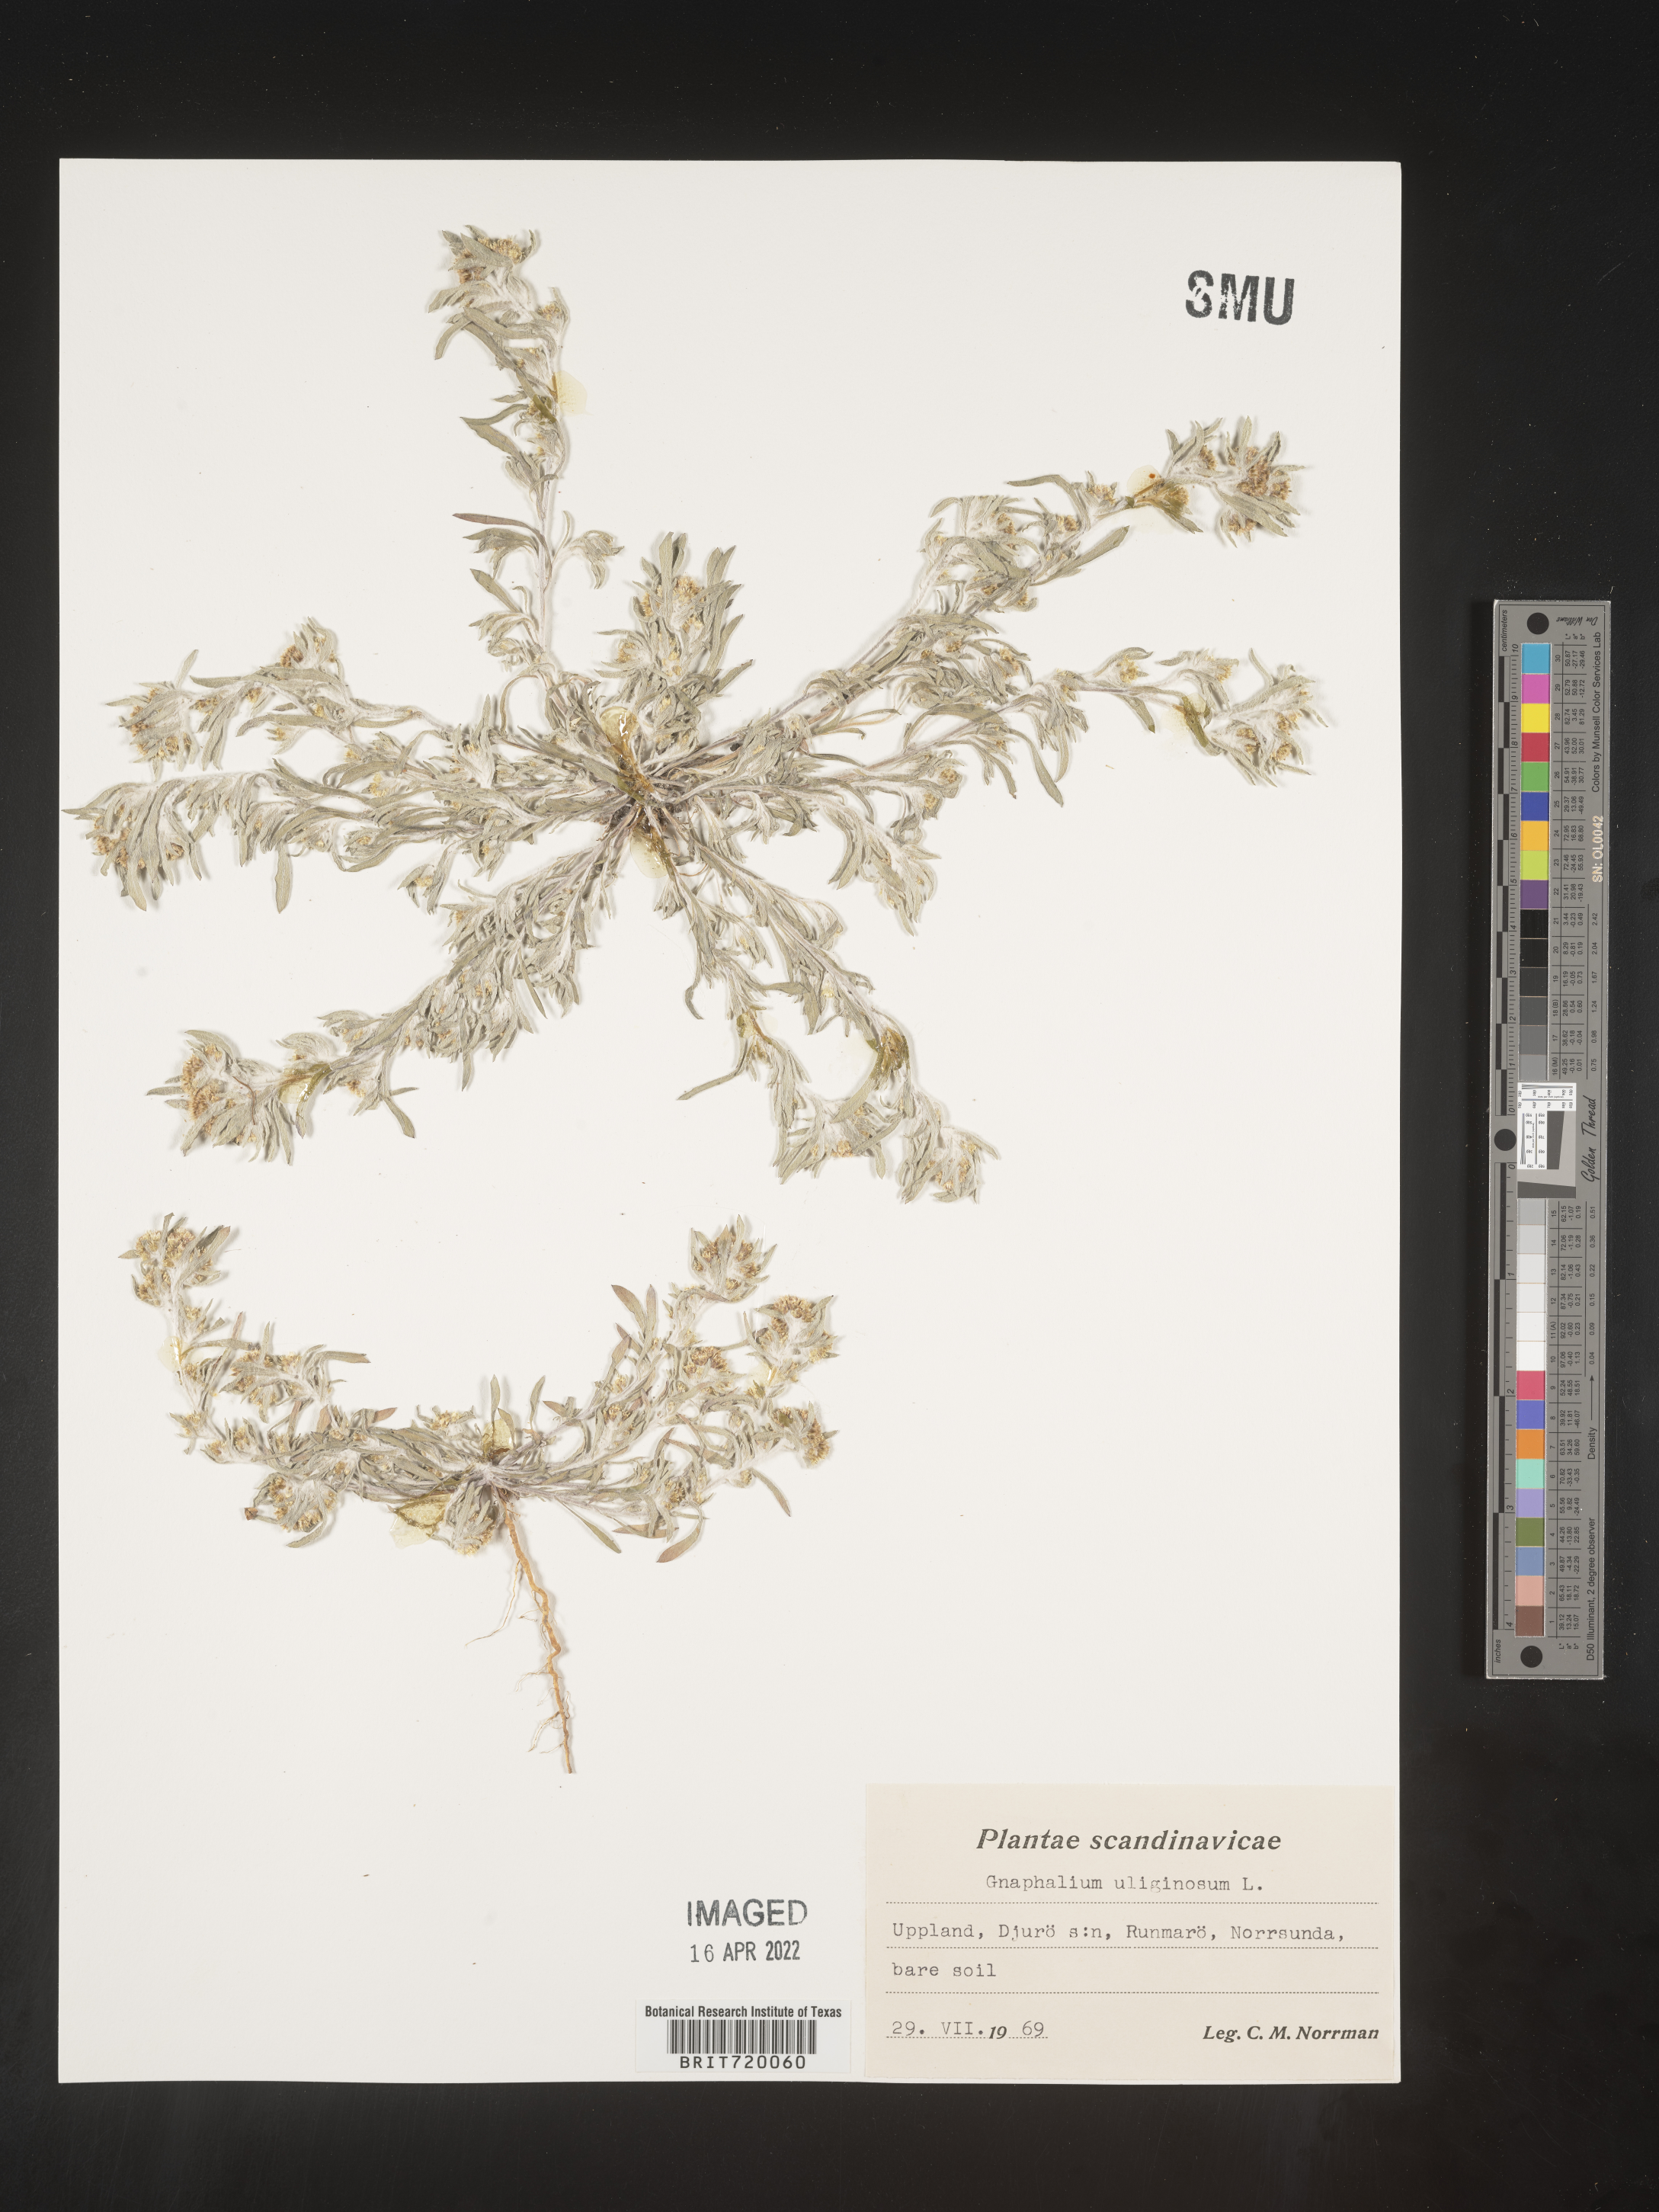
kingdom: Plantae
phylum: Tracheophyta
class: Magnoliopsida
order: Asterales
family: Asteraceae
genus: Gnaphalium
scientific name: Gnaphalium
